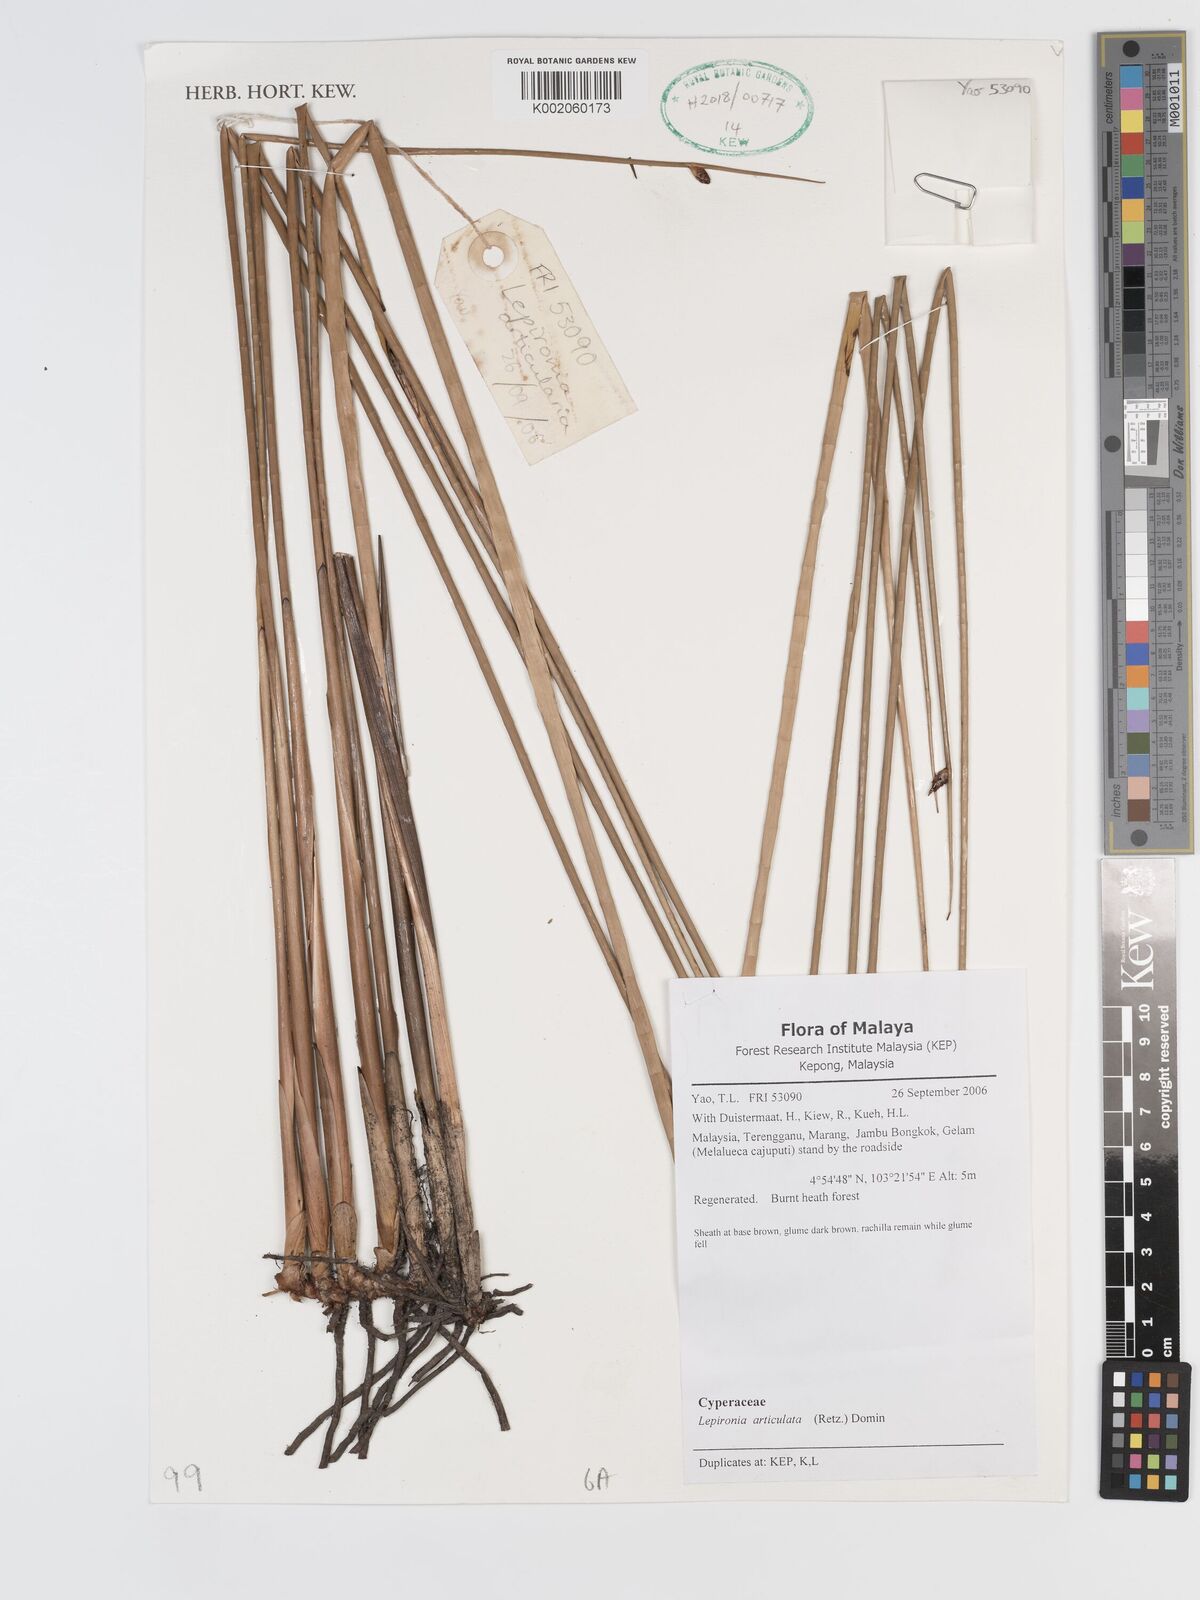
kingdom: Plantae
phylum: Tracheophyta
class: Liliopsida
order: Poales
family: Cyperaceae
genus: Lepironia
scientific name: Lepironia articulata
